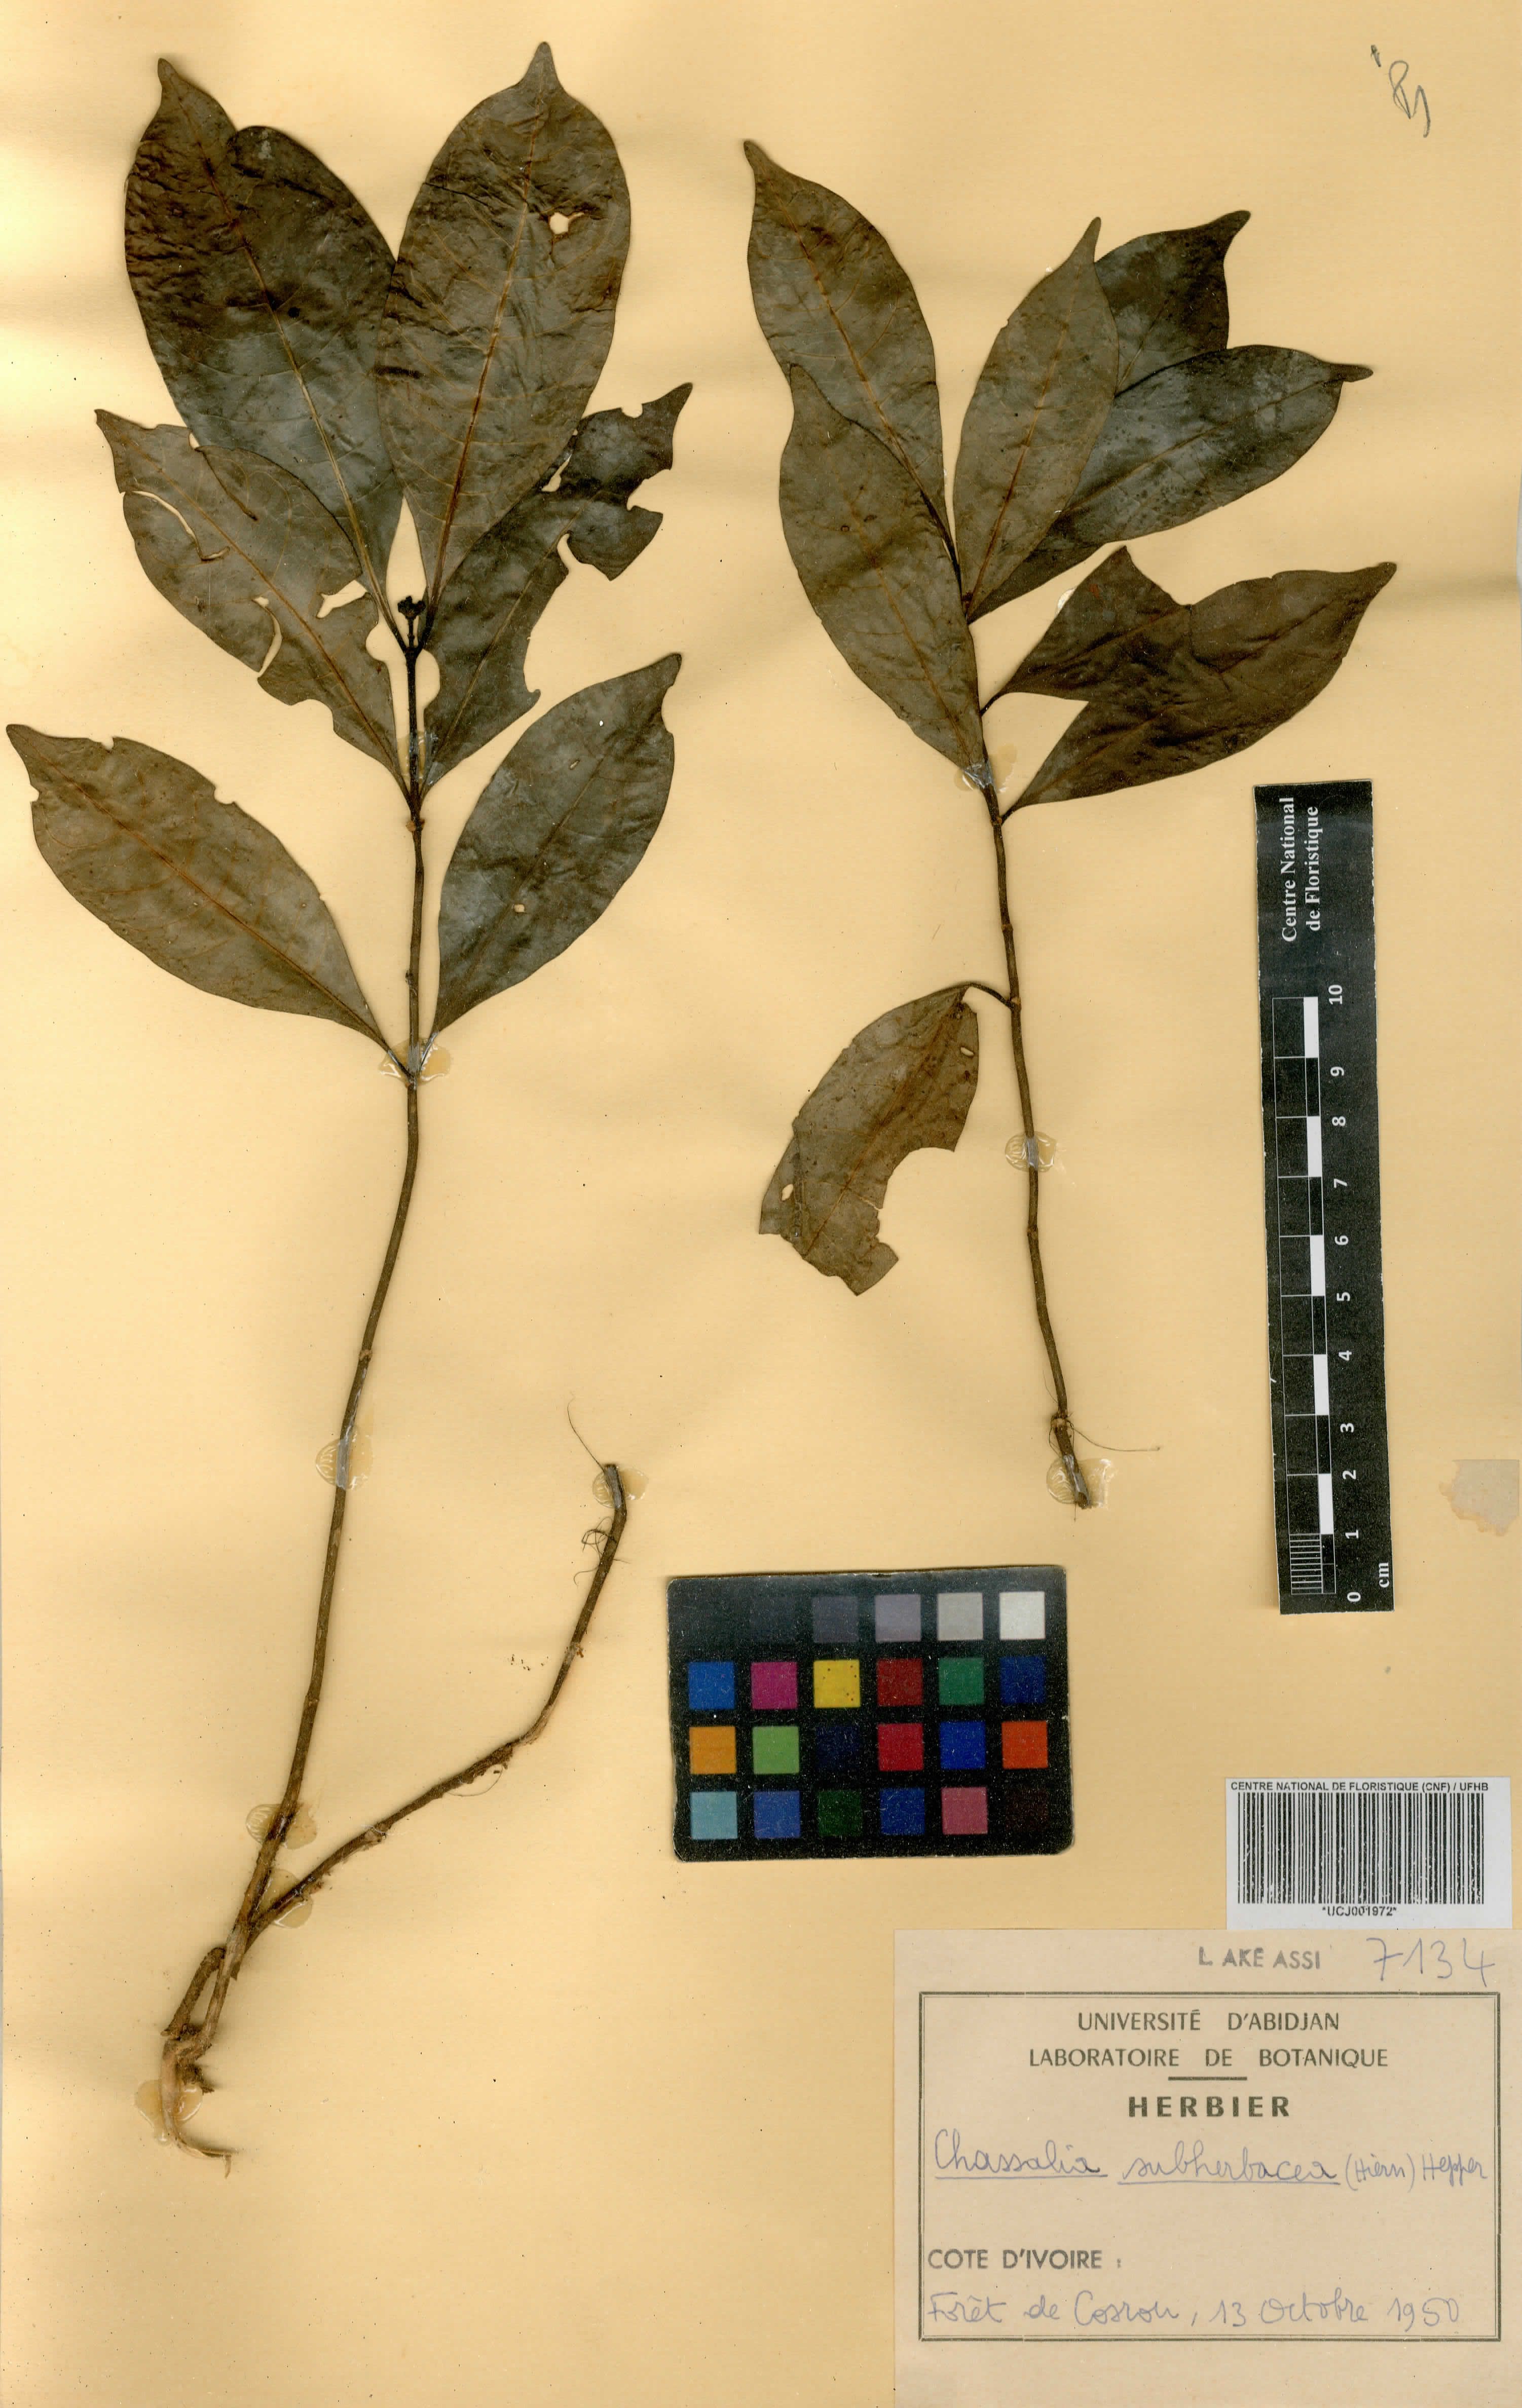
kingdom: Plantae
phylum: Tracheophyta
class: Magnoliopsida
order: Gentianales
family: Rubiaceae
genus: Chassalia
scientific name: Chassalia subherbacea
